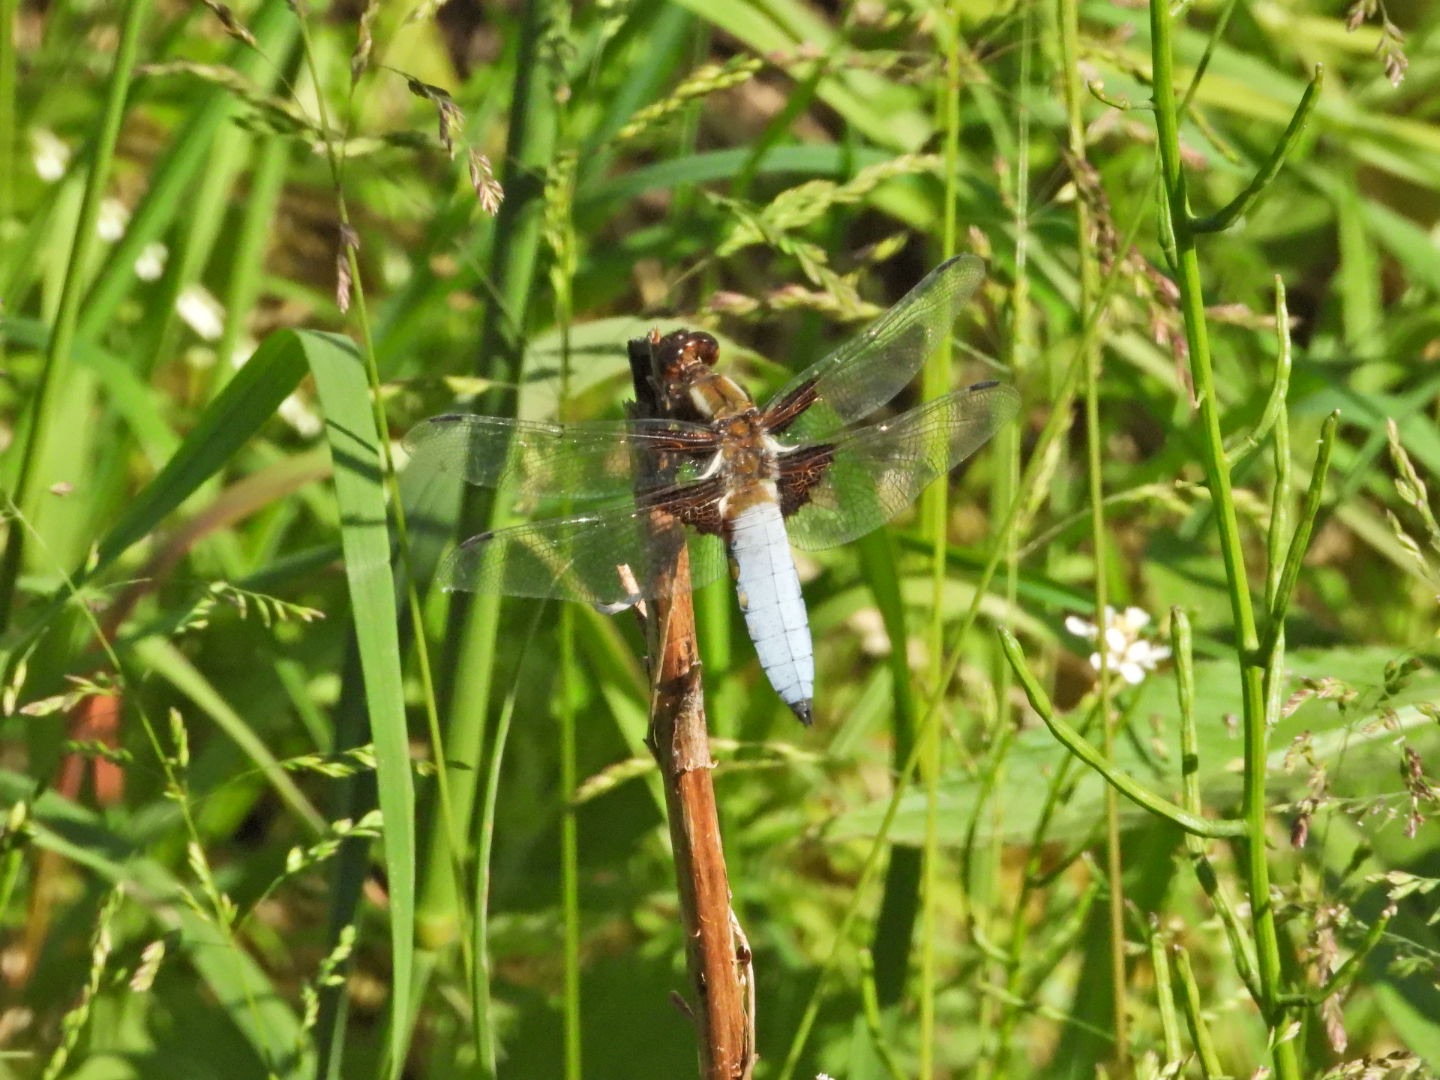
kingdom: Animalia
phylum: Arthropoda
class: Insecta
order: Odonata
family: Libellulidae
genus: Libellula
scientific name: Libellula depressa
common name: Blå libel
